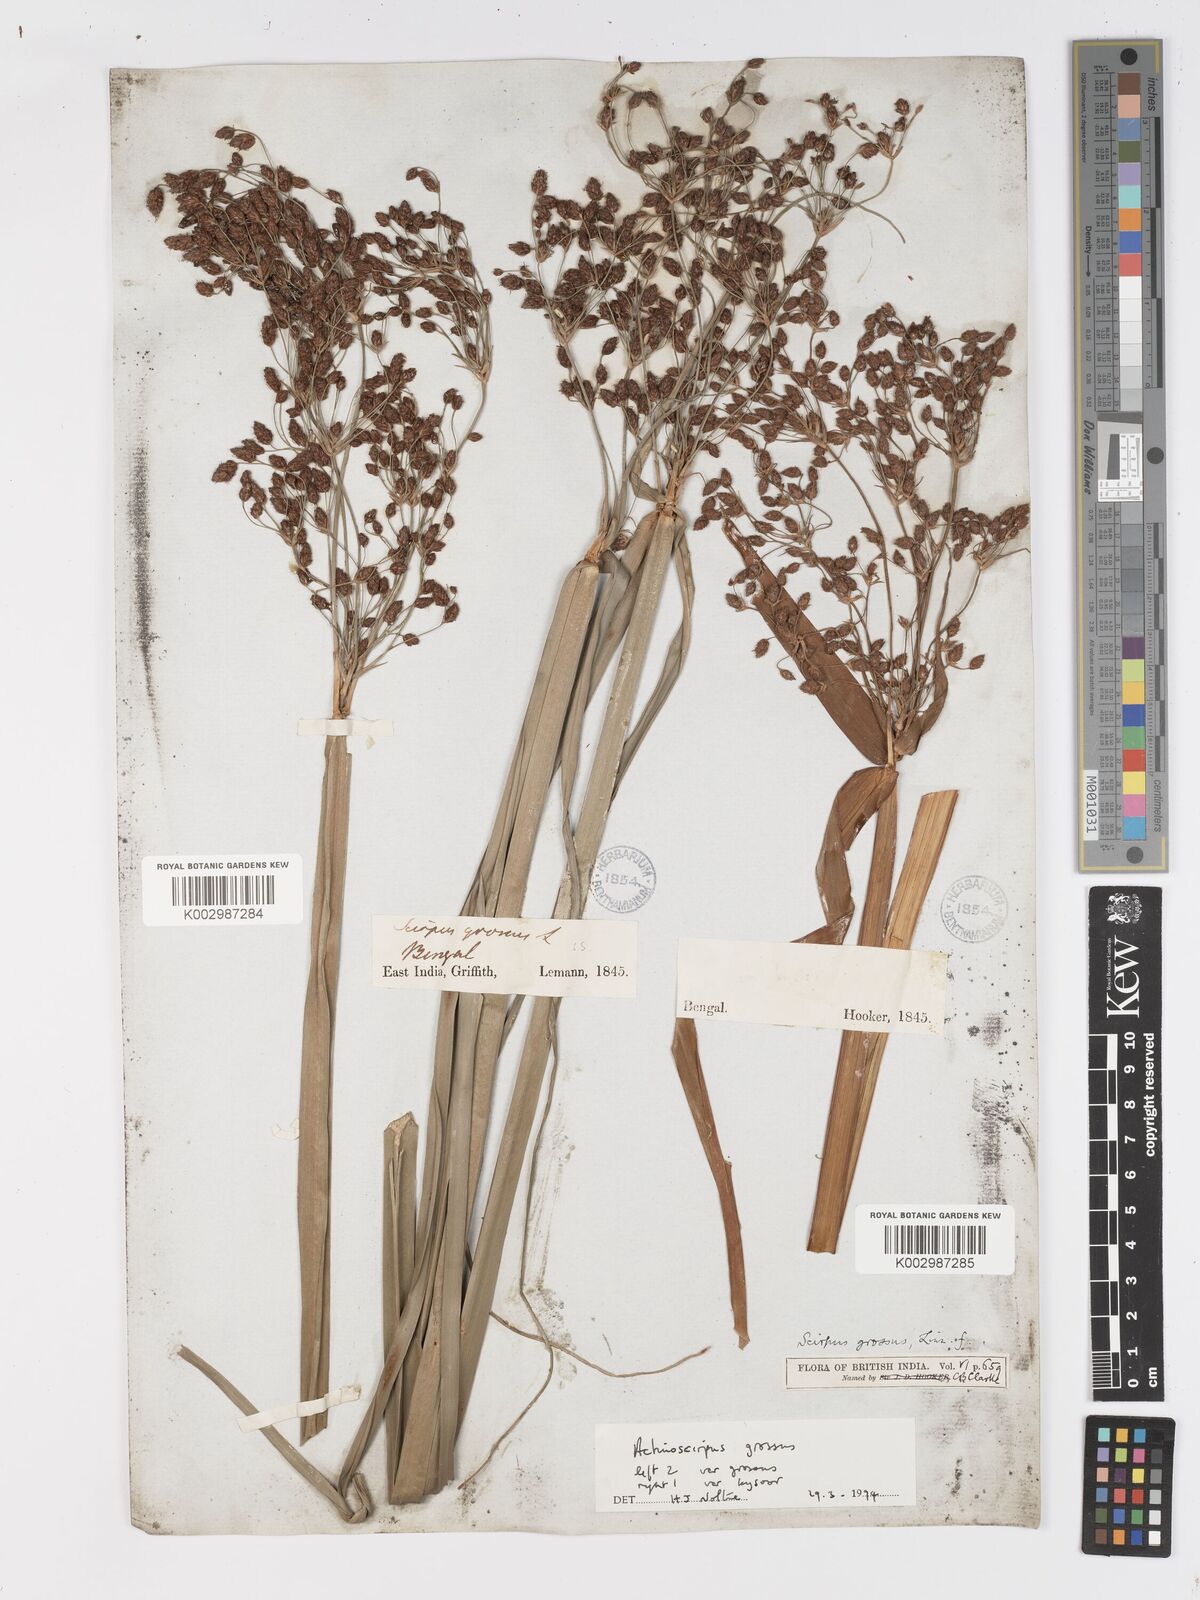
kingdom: Plantae
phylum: Tracheophyta
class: Liliopsida
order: Poales
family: Cyperaceae
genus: Actinoscirpus
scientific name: Actinoscirpus grossus
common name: Giant bur rush
